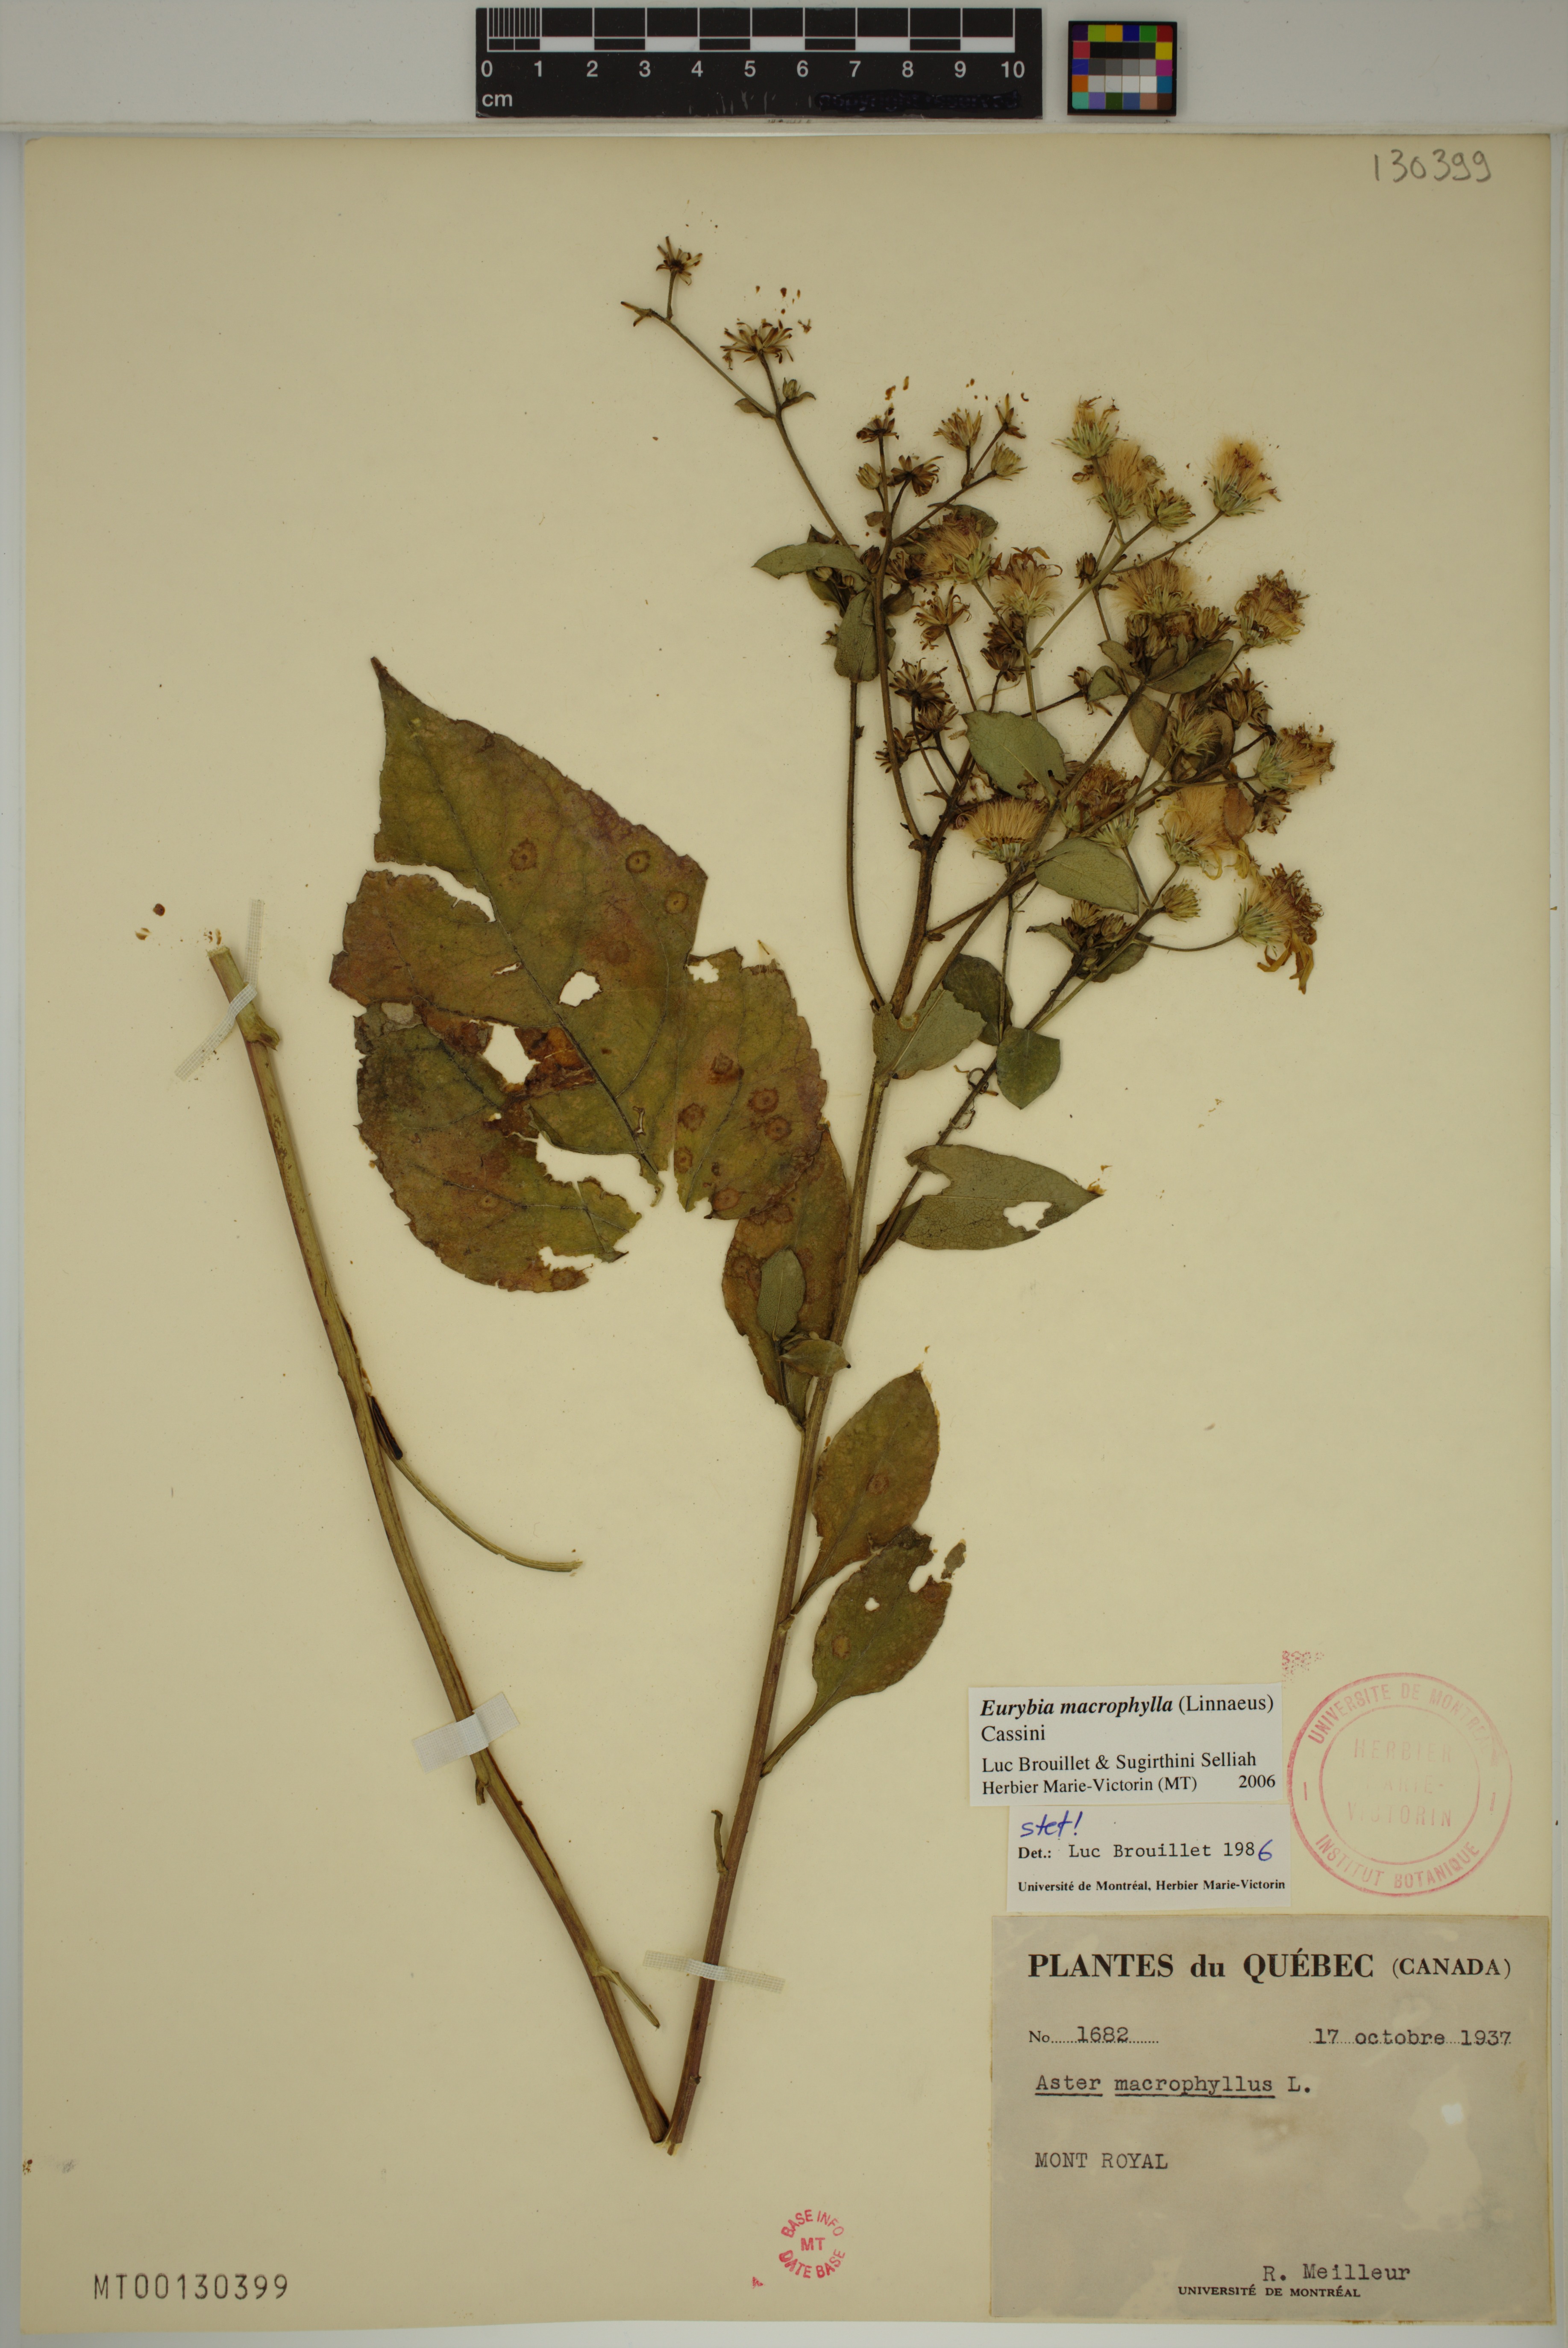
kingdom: Plantae
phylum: Tracheophyta
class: Magnoliopsida
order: Asterales
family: Asteraceae
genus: Eurybia
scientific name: Eurybia macrophylla
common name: Big-leaved aster
